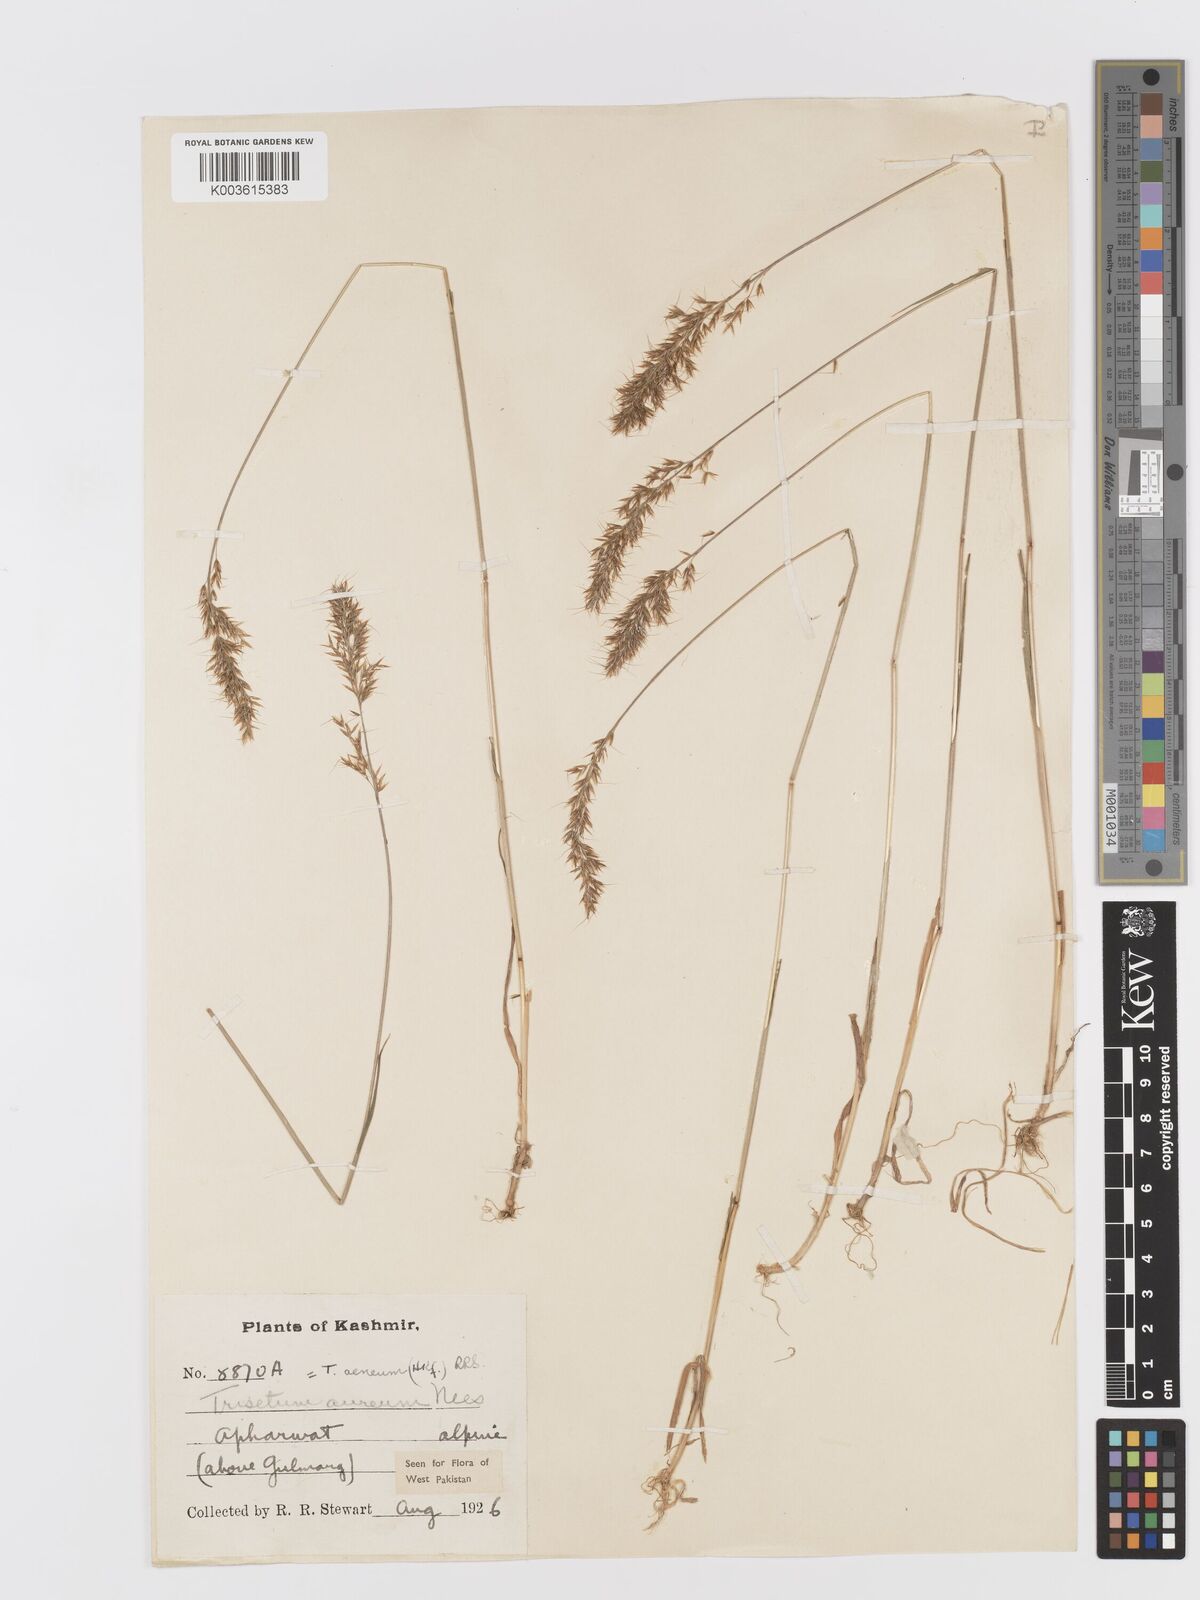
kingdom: Plantae
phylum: Tracheophyta
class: Liliopsida
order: Poales
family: Poaceae
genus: Sibirotrisetum
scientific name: Sibirotrisetum aeneum
